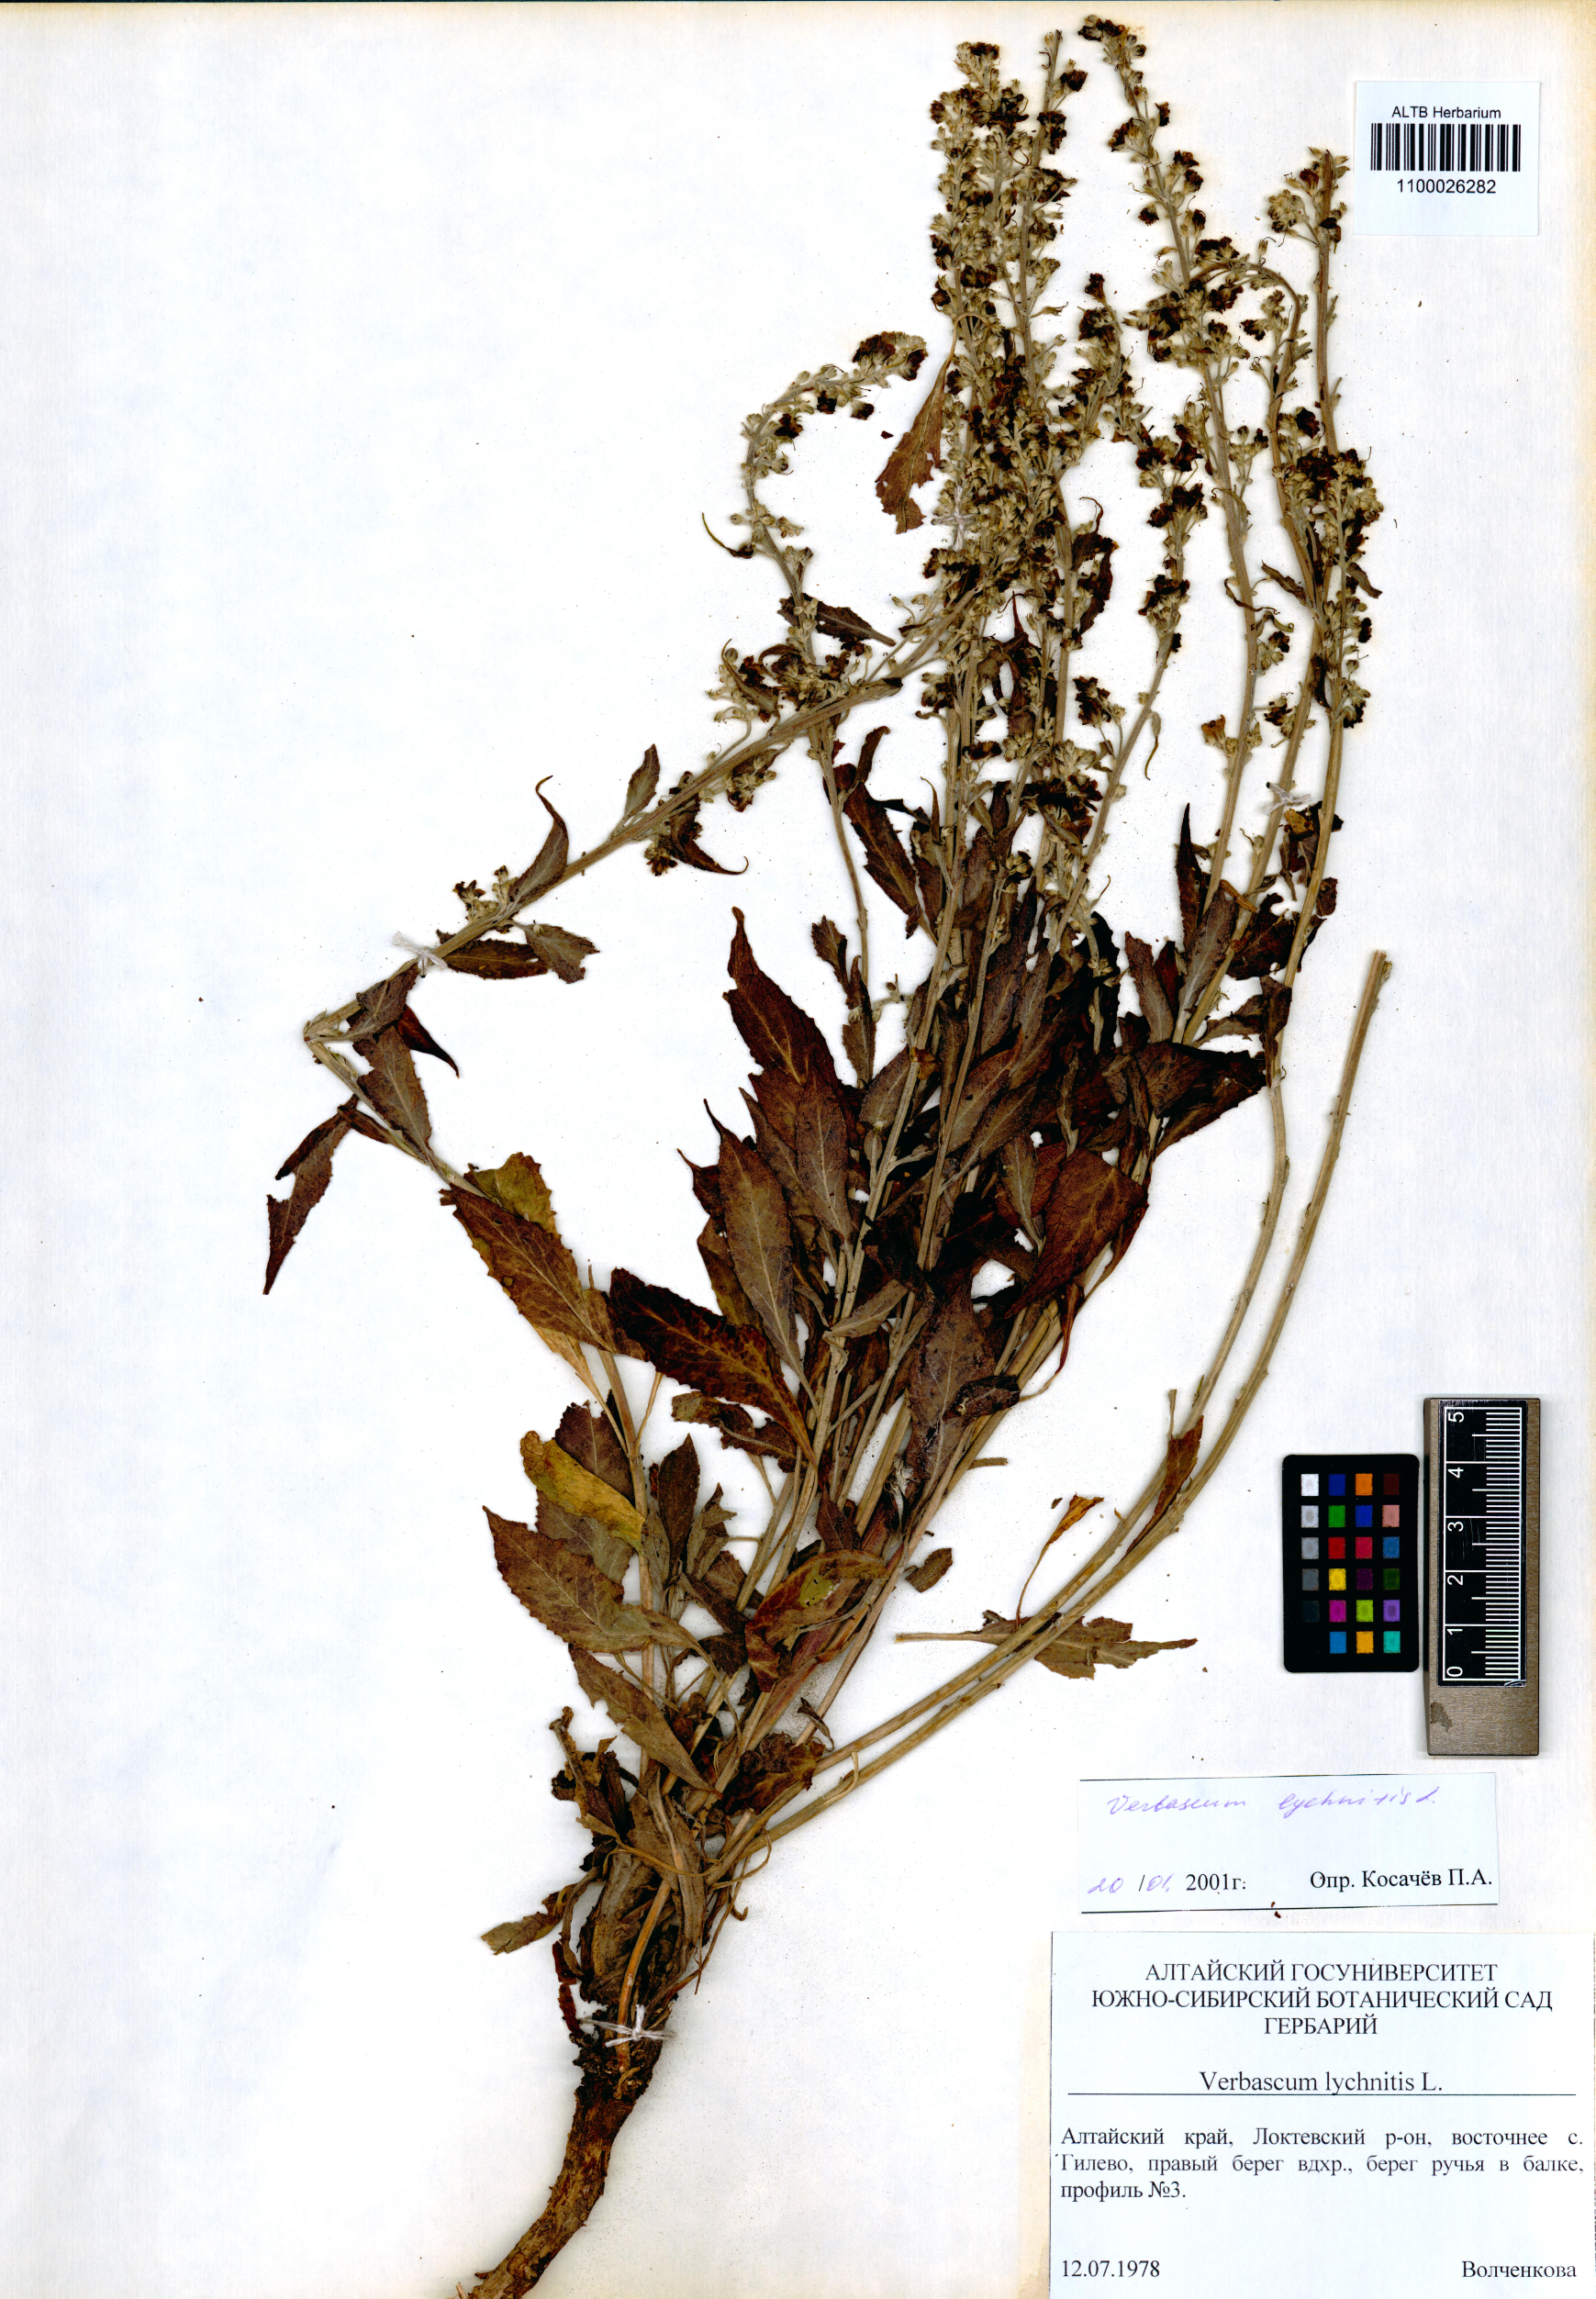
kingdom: Plantae
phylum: Tracheophyta
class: Magnoliopsida
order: Lamiales
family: Scrophulariaceae
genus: Verbascum
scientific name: Verbascum lychnitis
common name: White mullein
